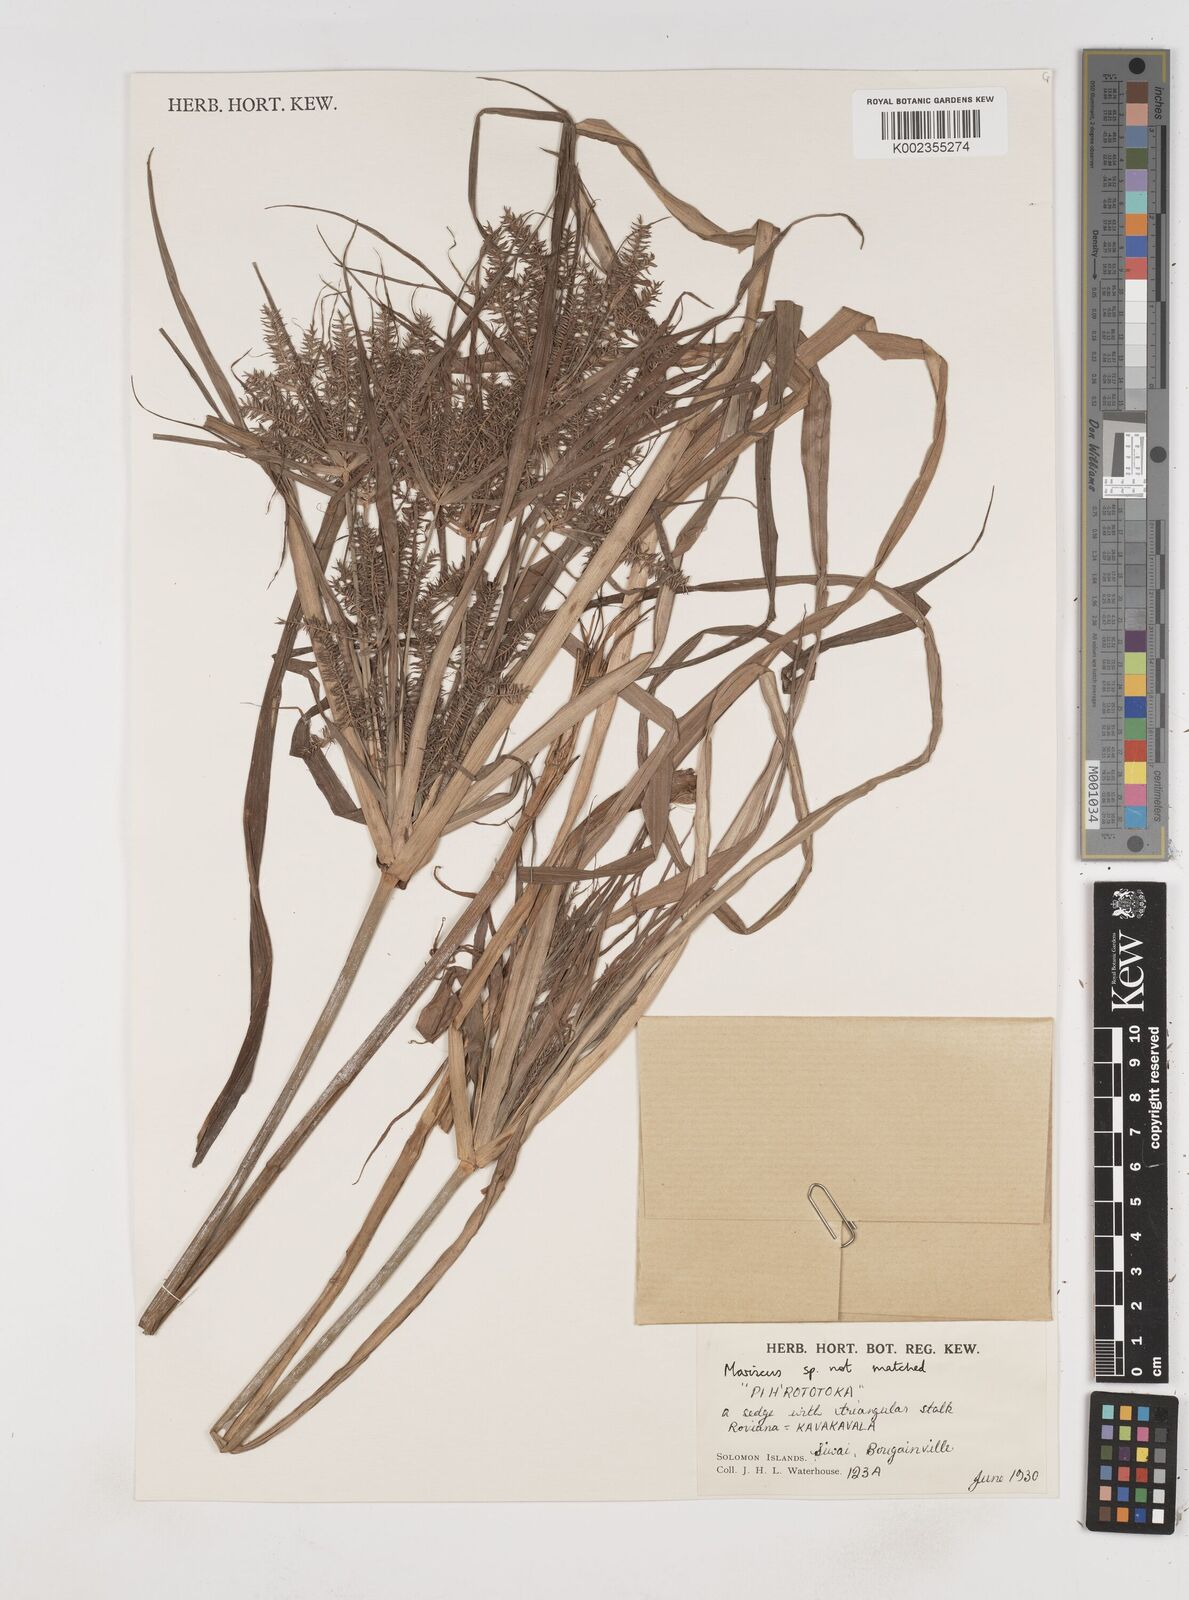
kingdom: Plantae
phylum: Tracheophyta
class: Liliopsida
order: Poales
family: Cyperaceae
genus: Cyperus
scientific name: Cyperus odoratus
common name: Fragrant flatsedge
